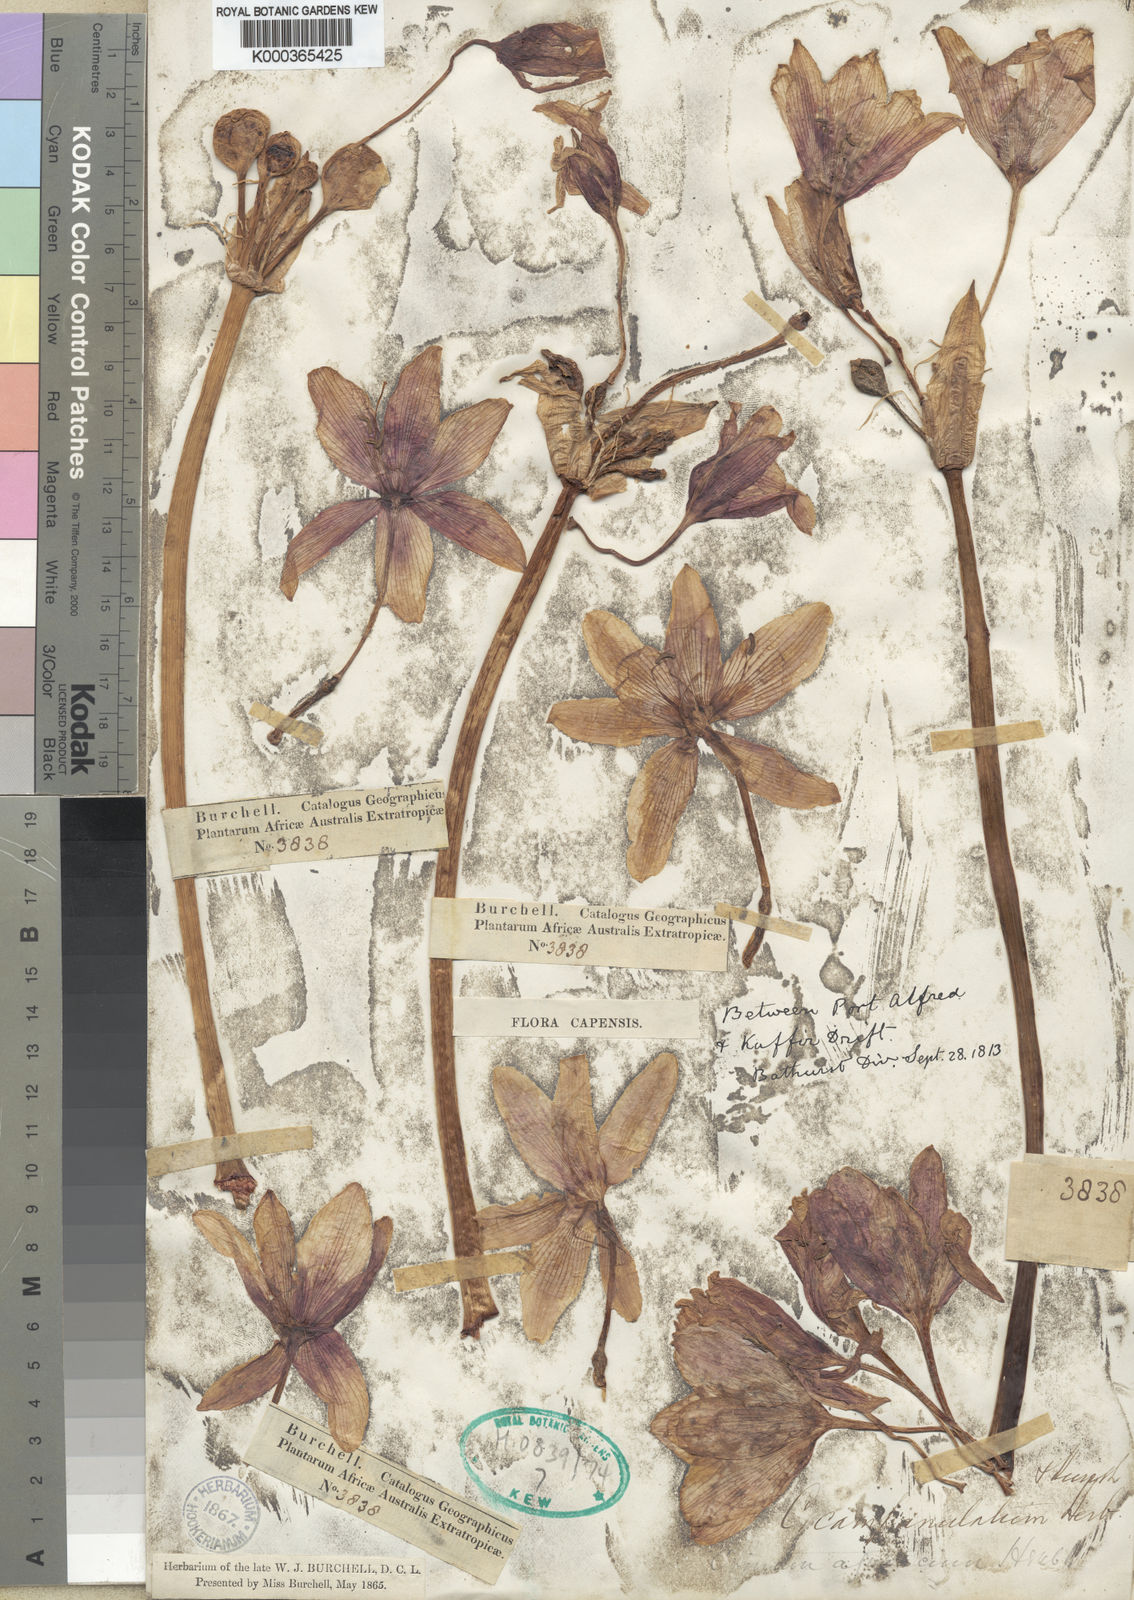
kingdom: Plantae
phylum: Tracheophyta
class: Liliopsida
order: Asparagales
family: Amaryllidaceae
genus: Crinum
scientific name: Crinum campanulatum
